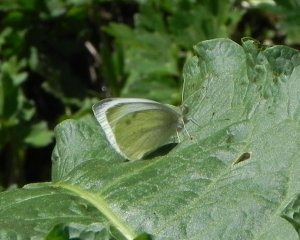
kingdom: Animalia
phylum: Arthropoda
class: Insecta
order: Lepidoptera
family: Pieridae
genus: Pieris
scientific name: Pieris rapae
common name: Cabbage White
